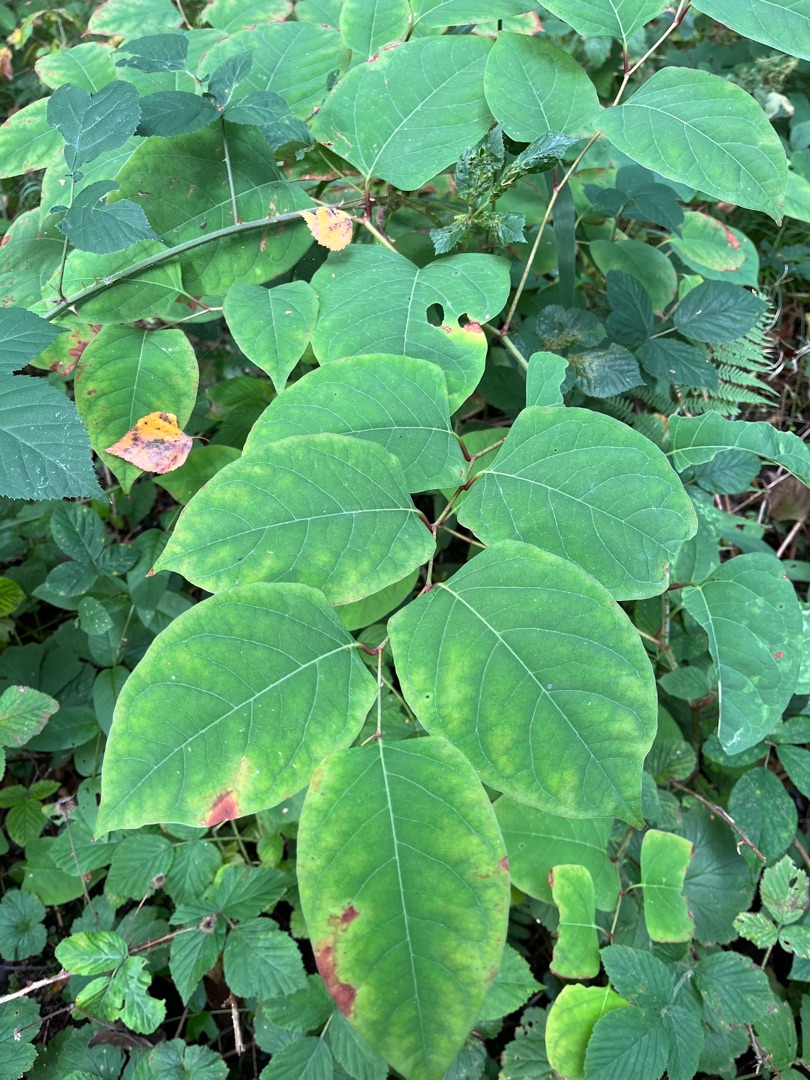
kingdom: Plantae
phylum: Tracheophyta
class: Magnoliopsida
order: Caryophyllales
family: Polygonaceae
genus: Reynoutria
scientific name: Reynoutria japonica
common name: Japan-pileurt
